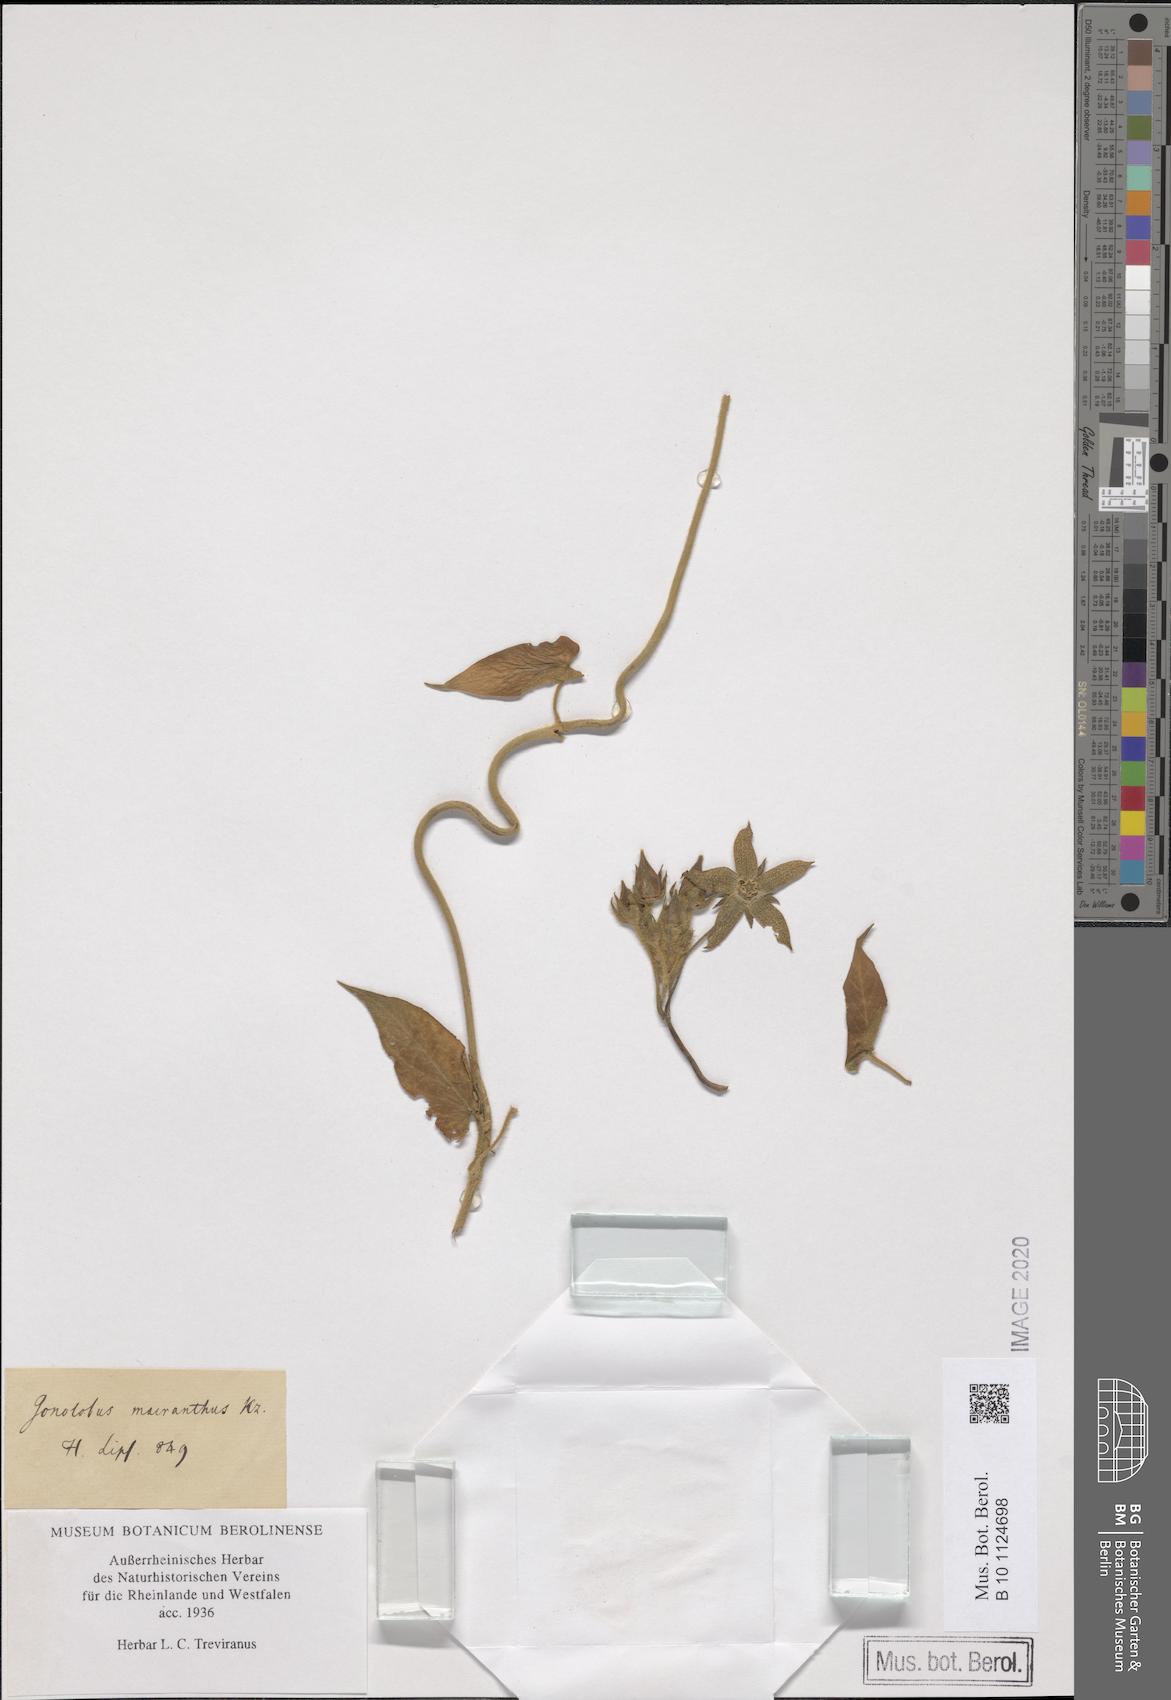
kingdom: Plantae
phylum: Tracheophyta
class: Magnoliopsida
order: Gentianales
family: Apocynaceae
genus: Gonolobus
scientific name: Gonolobus erianthus
